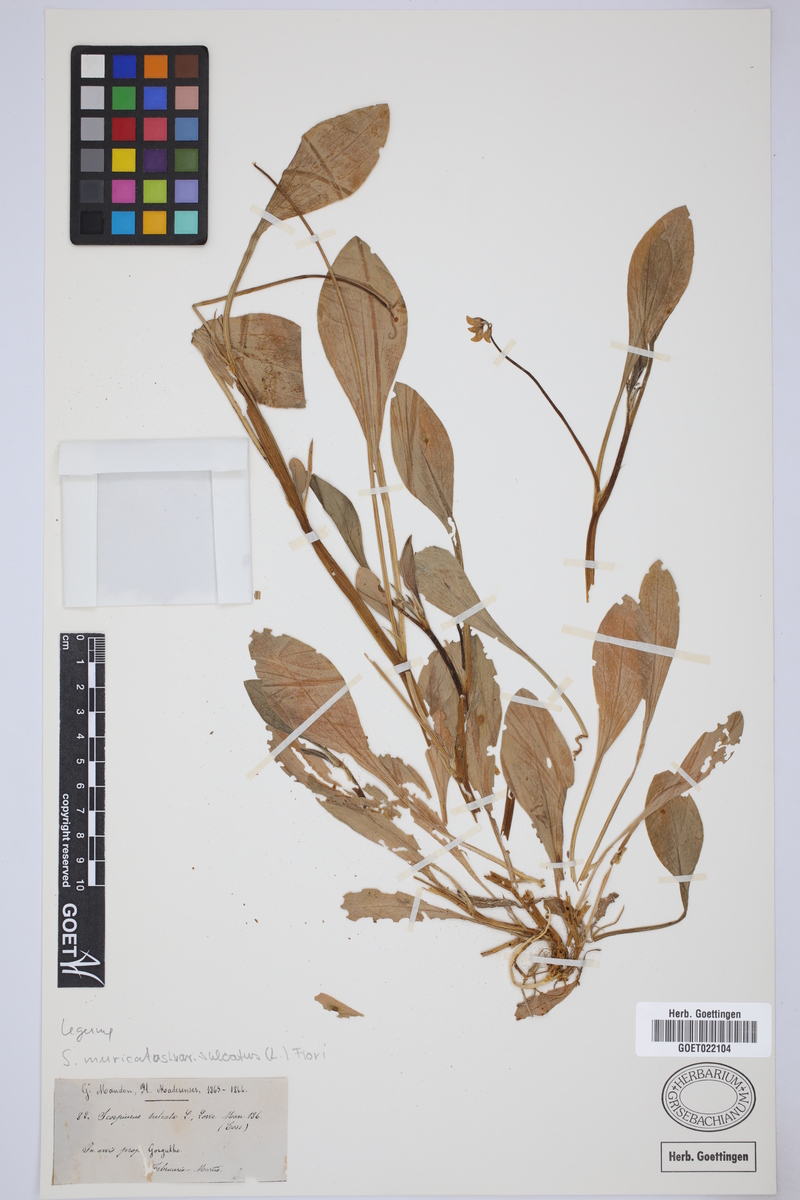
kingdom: Plantae
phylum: Tracheophyta
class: Magnoliopsida
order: Fabales
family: Fabaceae
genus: Scorpiurus
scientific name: Scorpiurus muricatus
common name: Caterpillar-plant
